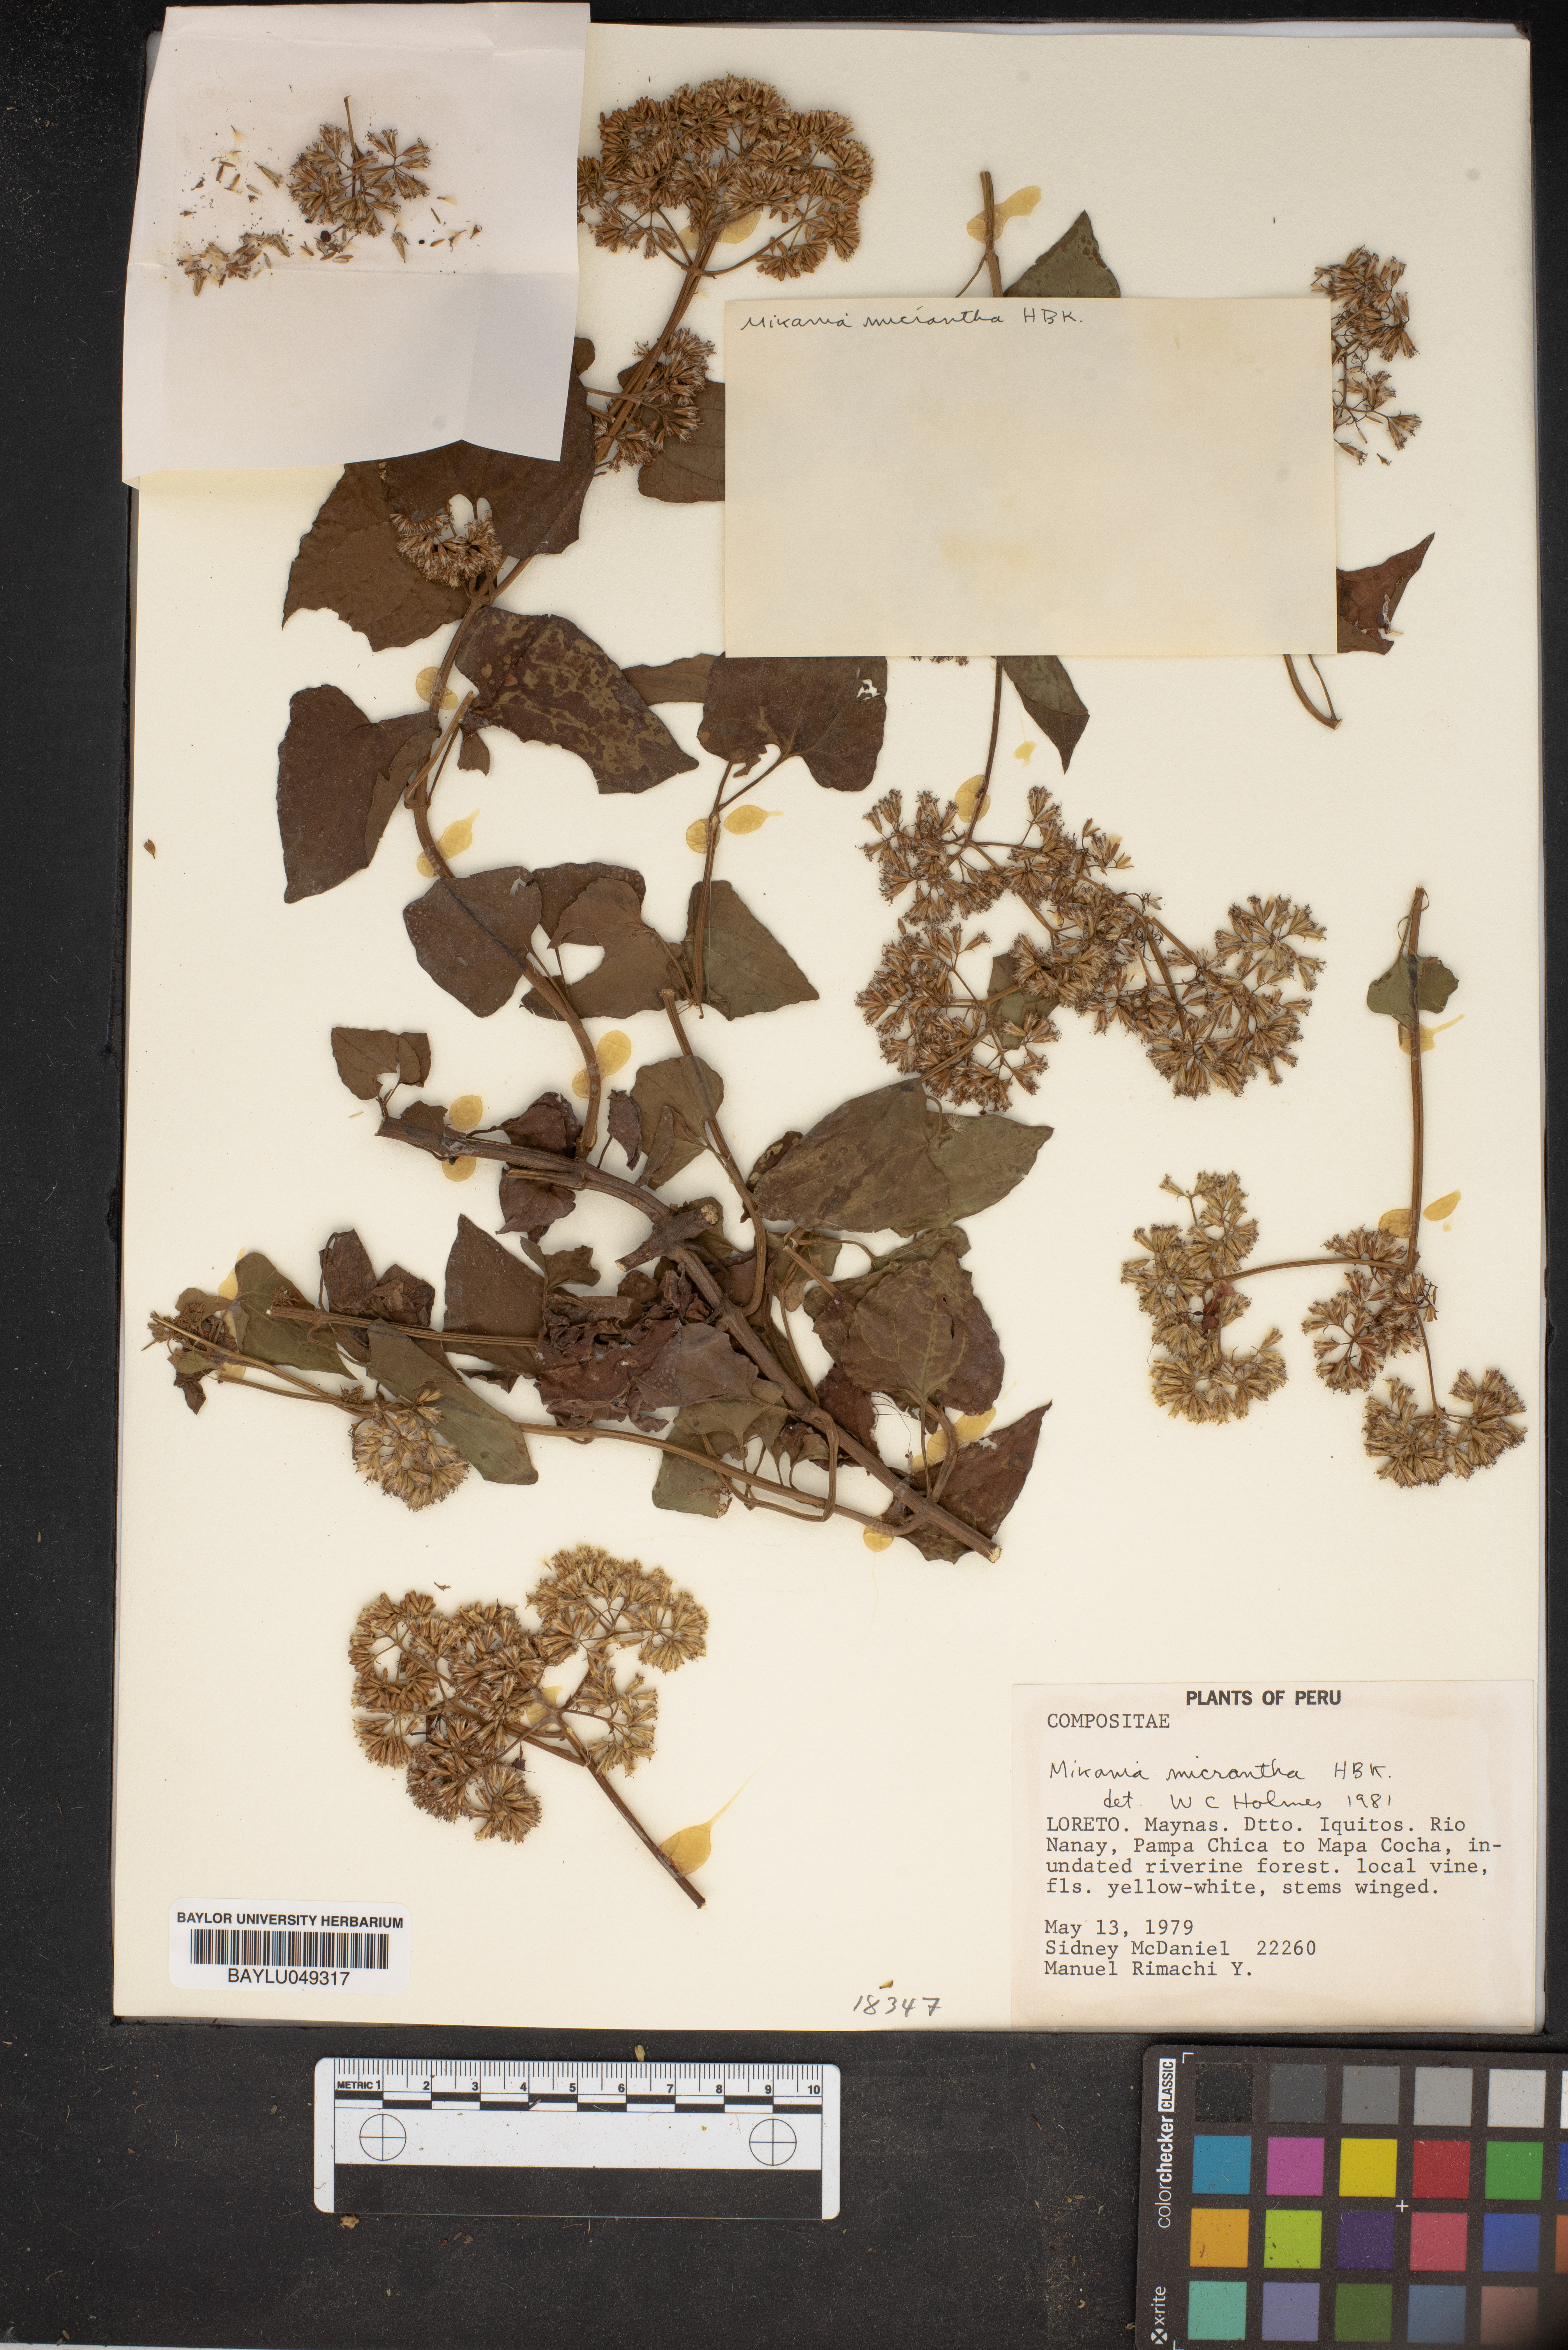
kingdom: Plantae
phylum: Tracheophyta
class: Magnoliopsida
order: Asterales
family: Asteraceae
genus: Mikania
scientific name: Mikania micrantha
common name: Mile-a-minute
